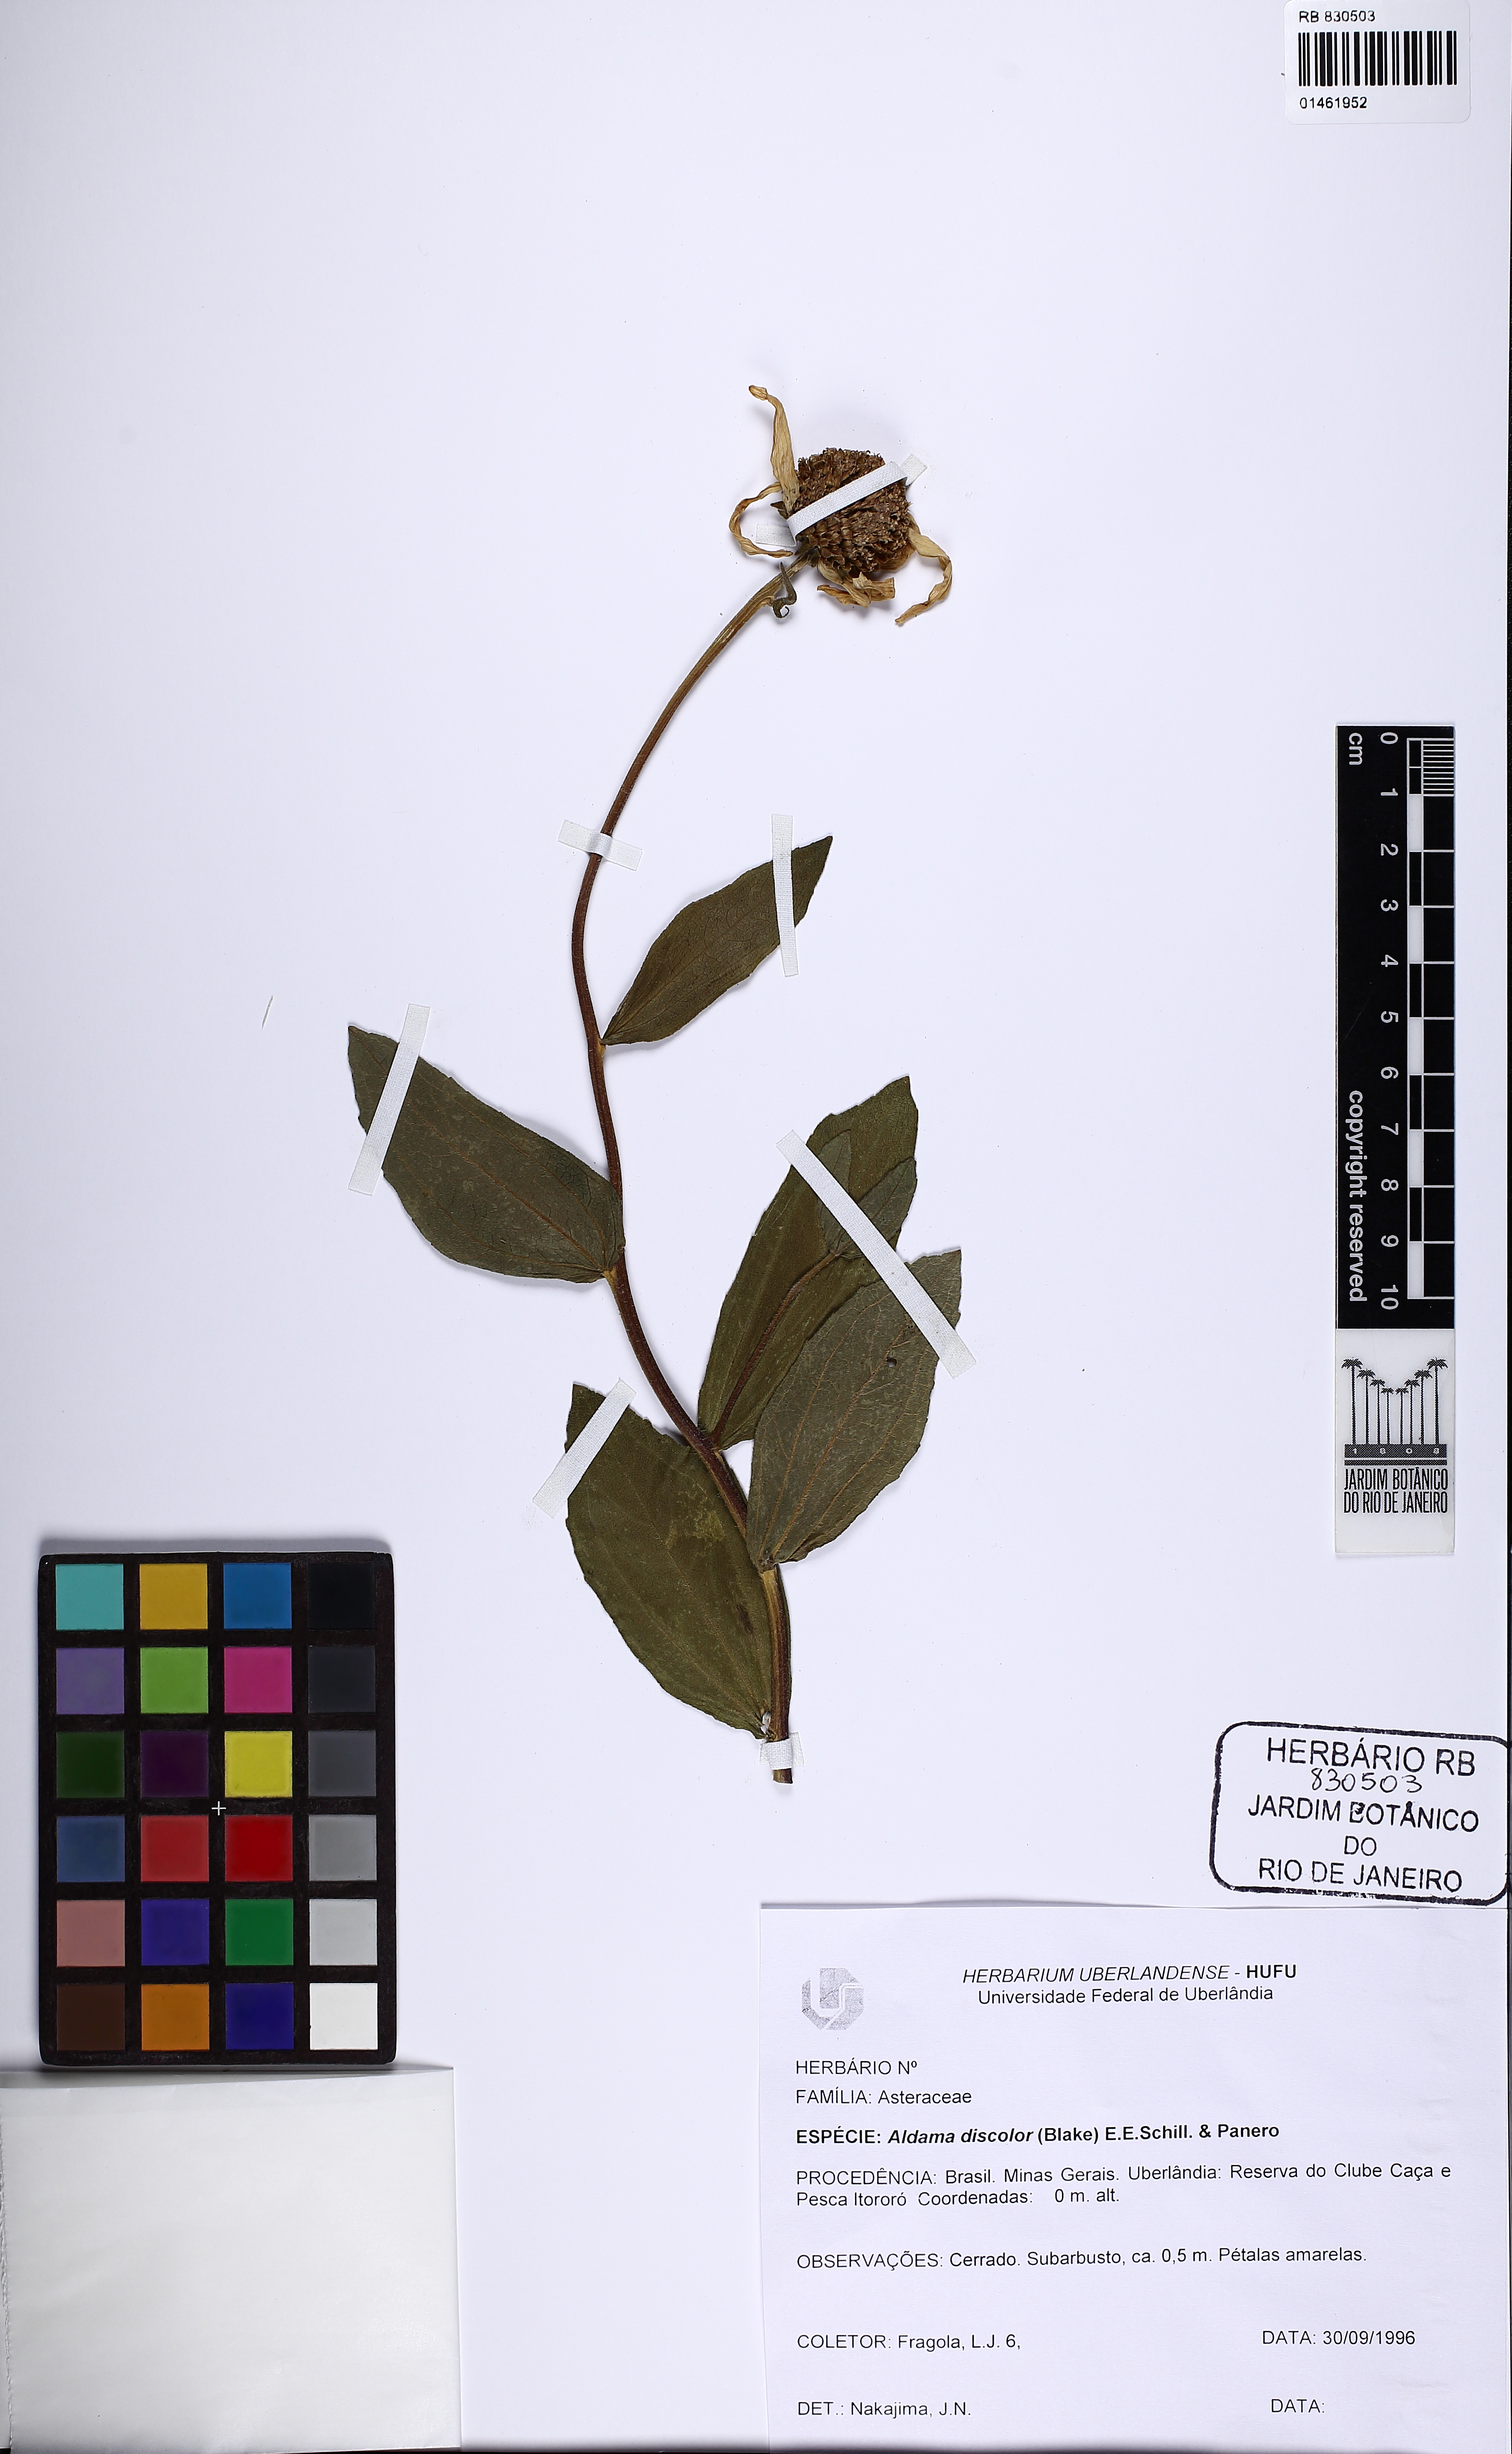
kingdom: Plantae
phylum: Tracheophyta
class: Magnoliopsida
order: Asterales
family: Asteraceae
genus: Aldama
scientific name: Aldama discolor
